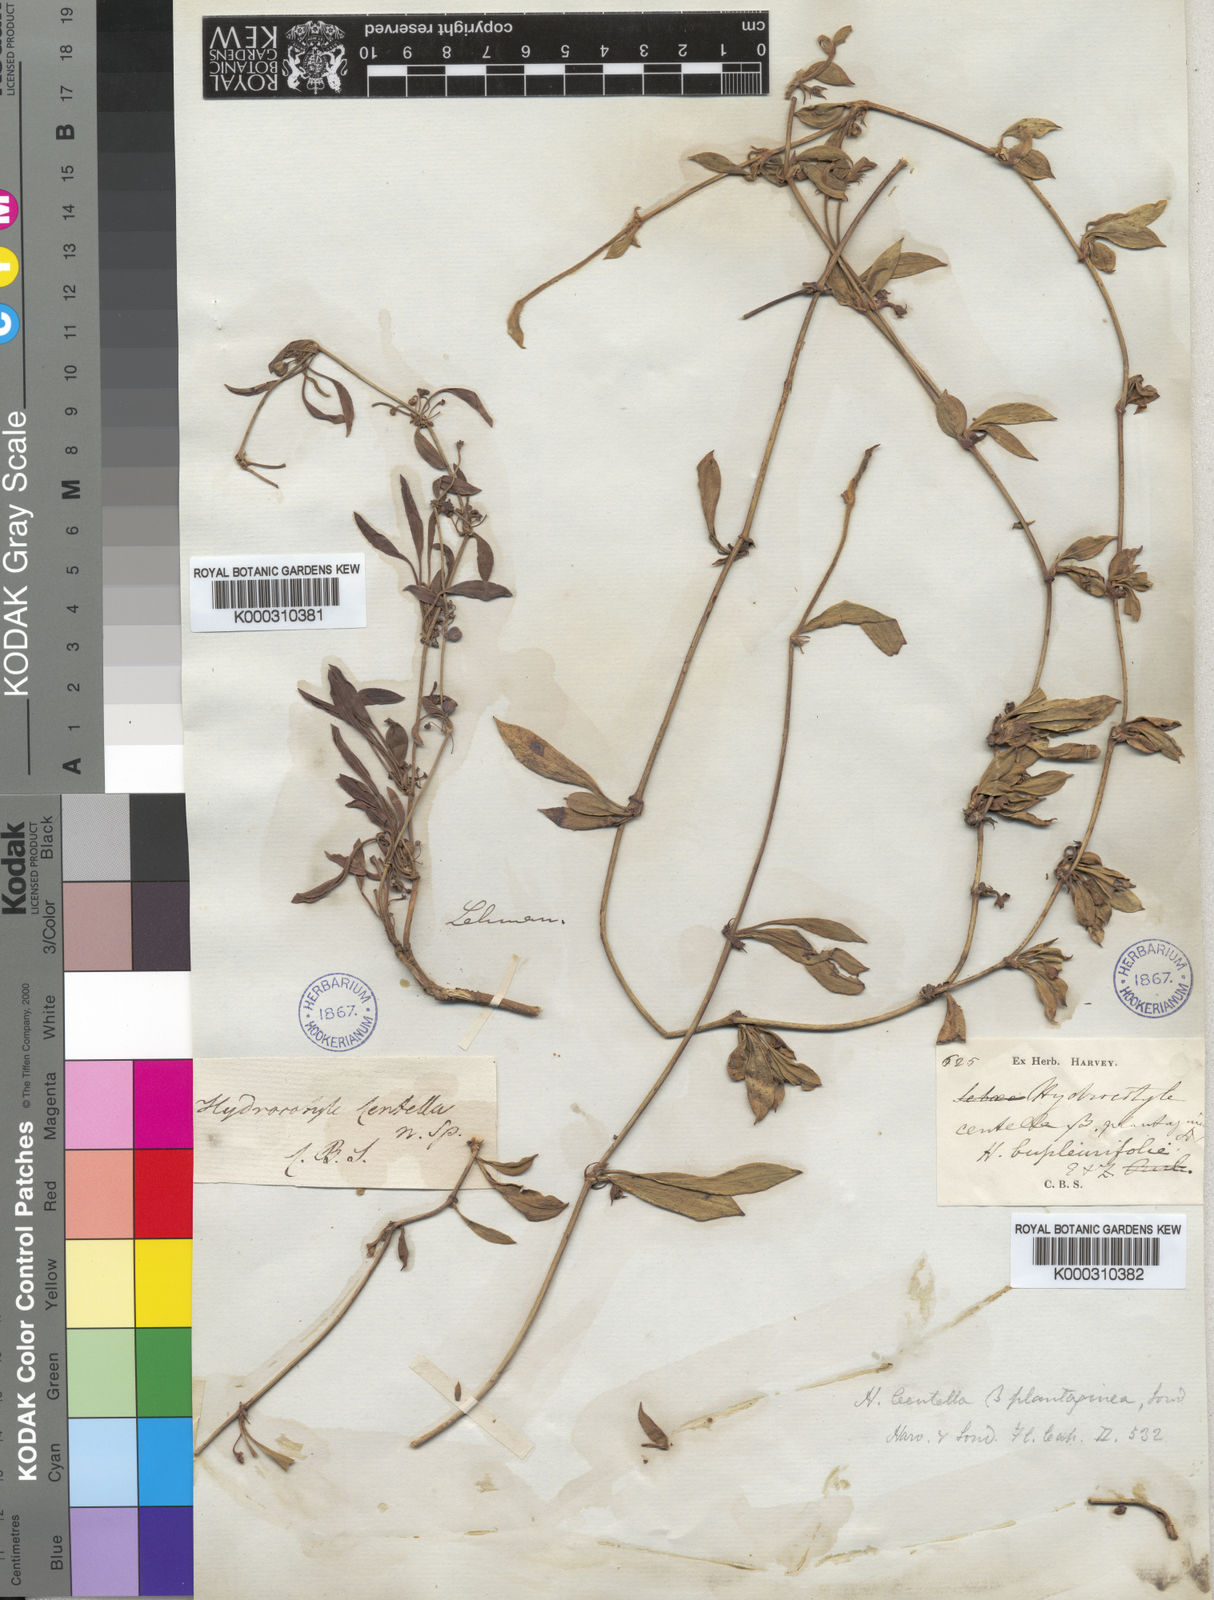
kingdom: Plantae
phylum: Tracheophyta
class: Magnoliopsida
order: Apiales
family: Apiaceae
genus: Centella
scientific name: Centella glabrata
